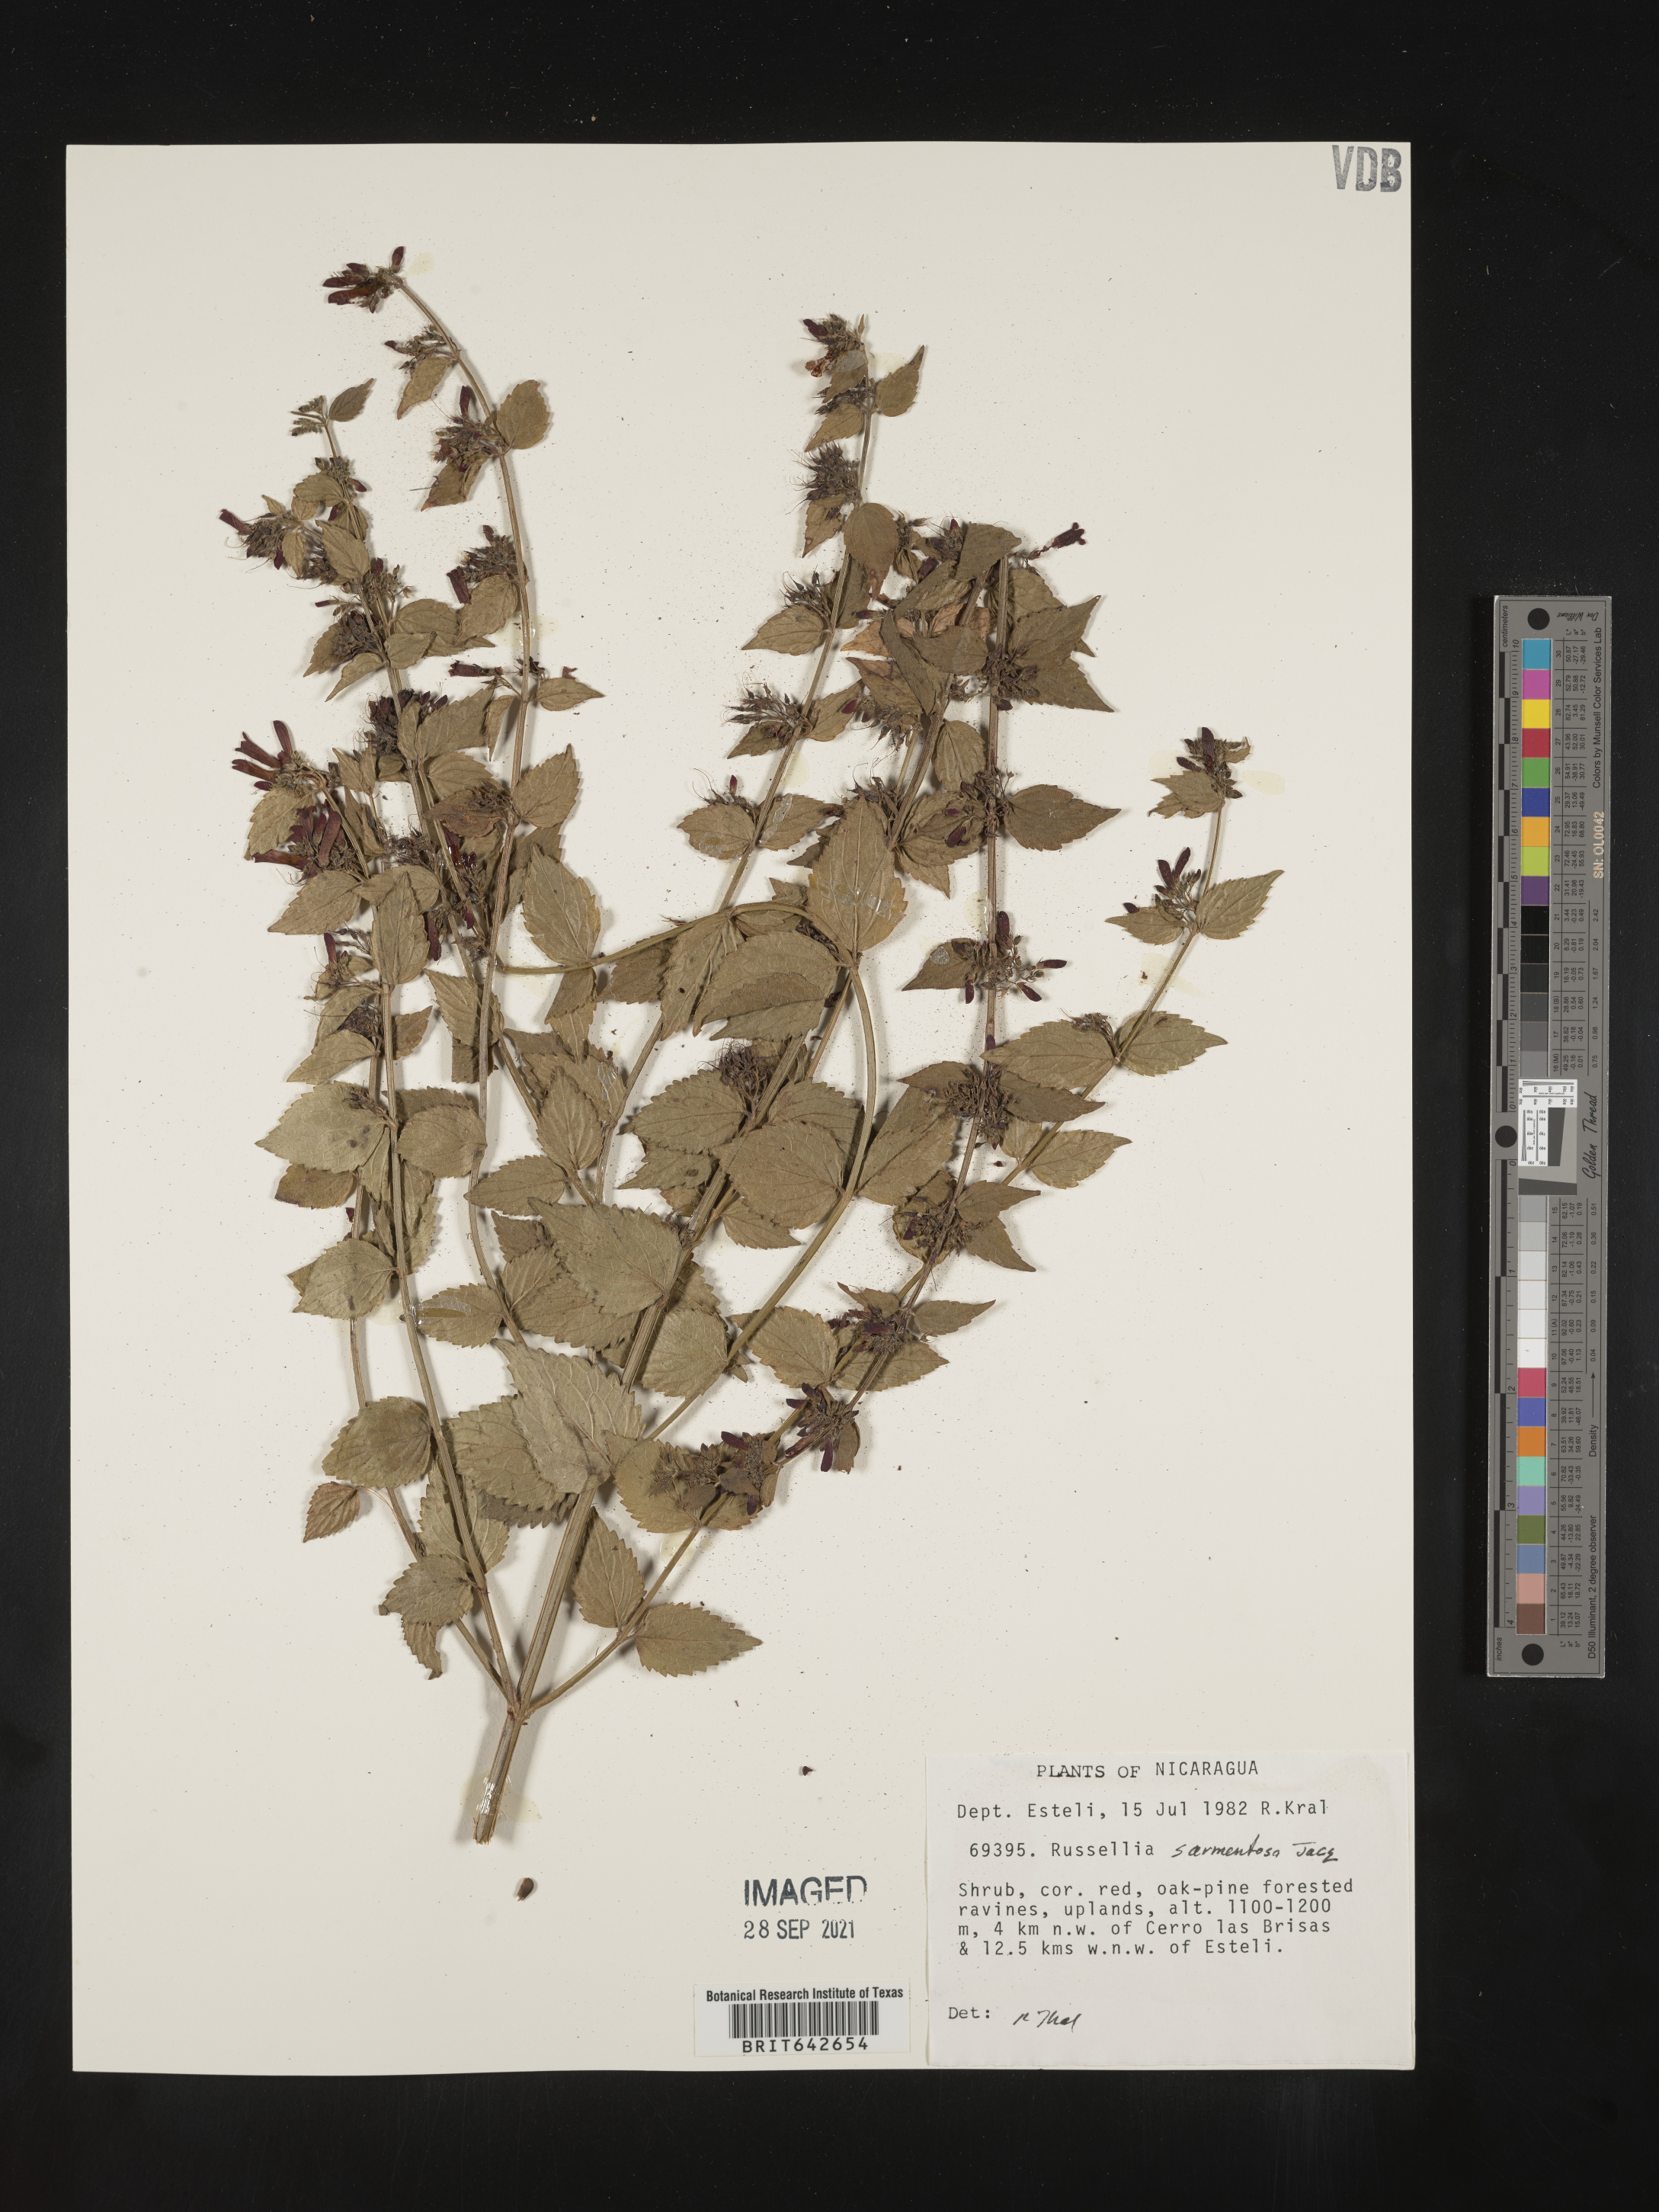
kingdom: Plantae
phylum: Tracheophyta
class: Magnoliopsida
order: Lamiales
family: Plantaginaceae
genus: Russelia
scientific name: Russelia
